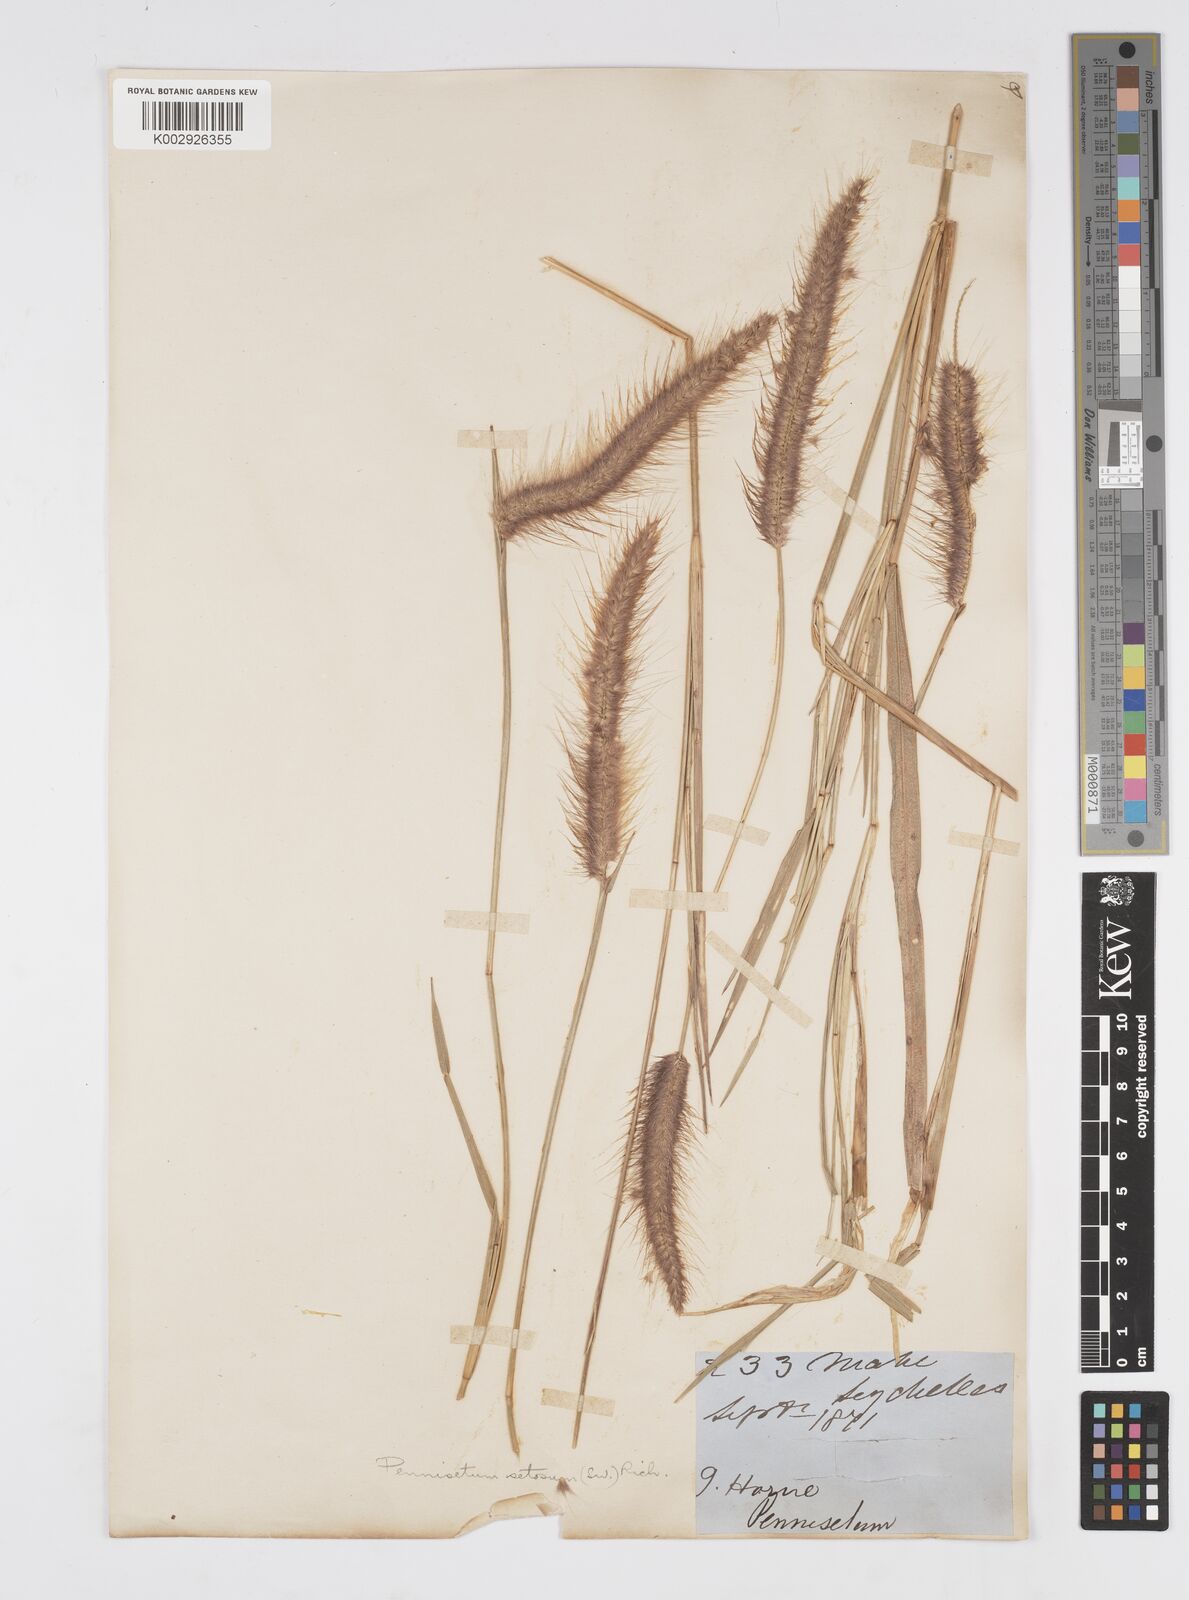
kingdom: Plantae
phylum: Tracheophyta
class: Liliopsida
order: Poales
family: Poaceae
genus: Setaria
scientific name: Setaria parviflora
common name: Knotroot bristle-grass
